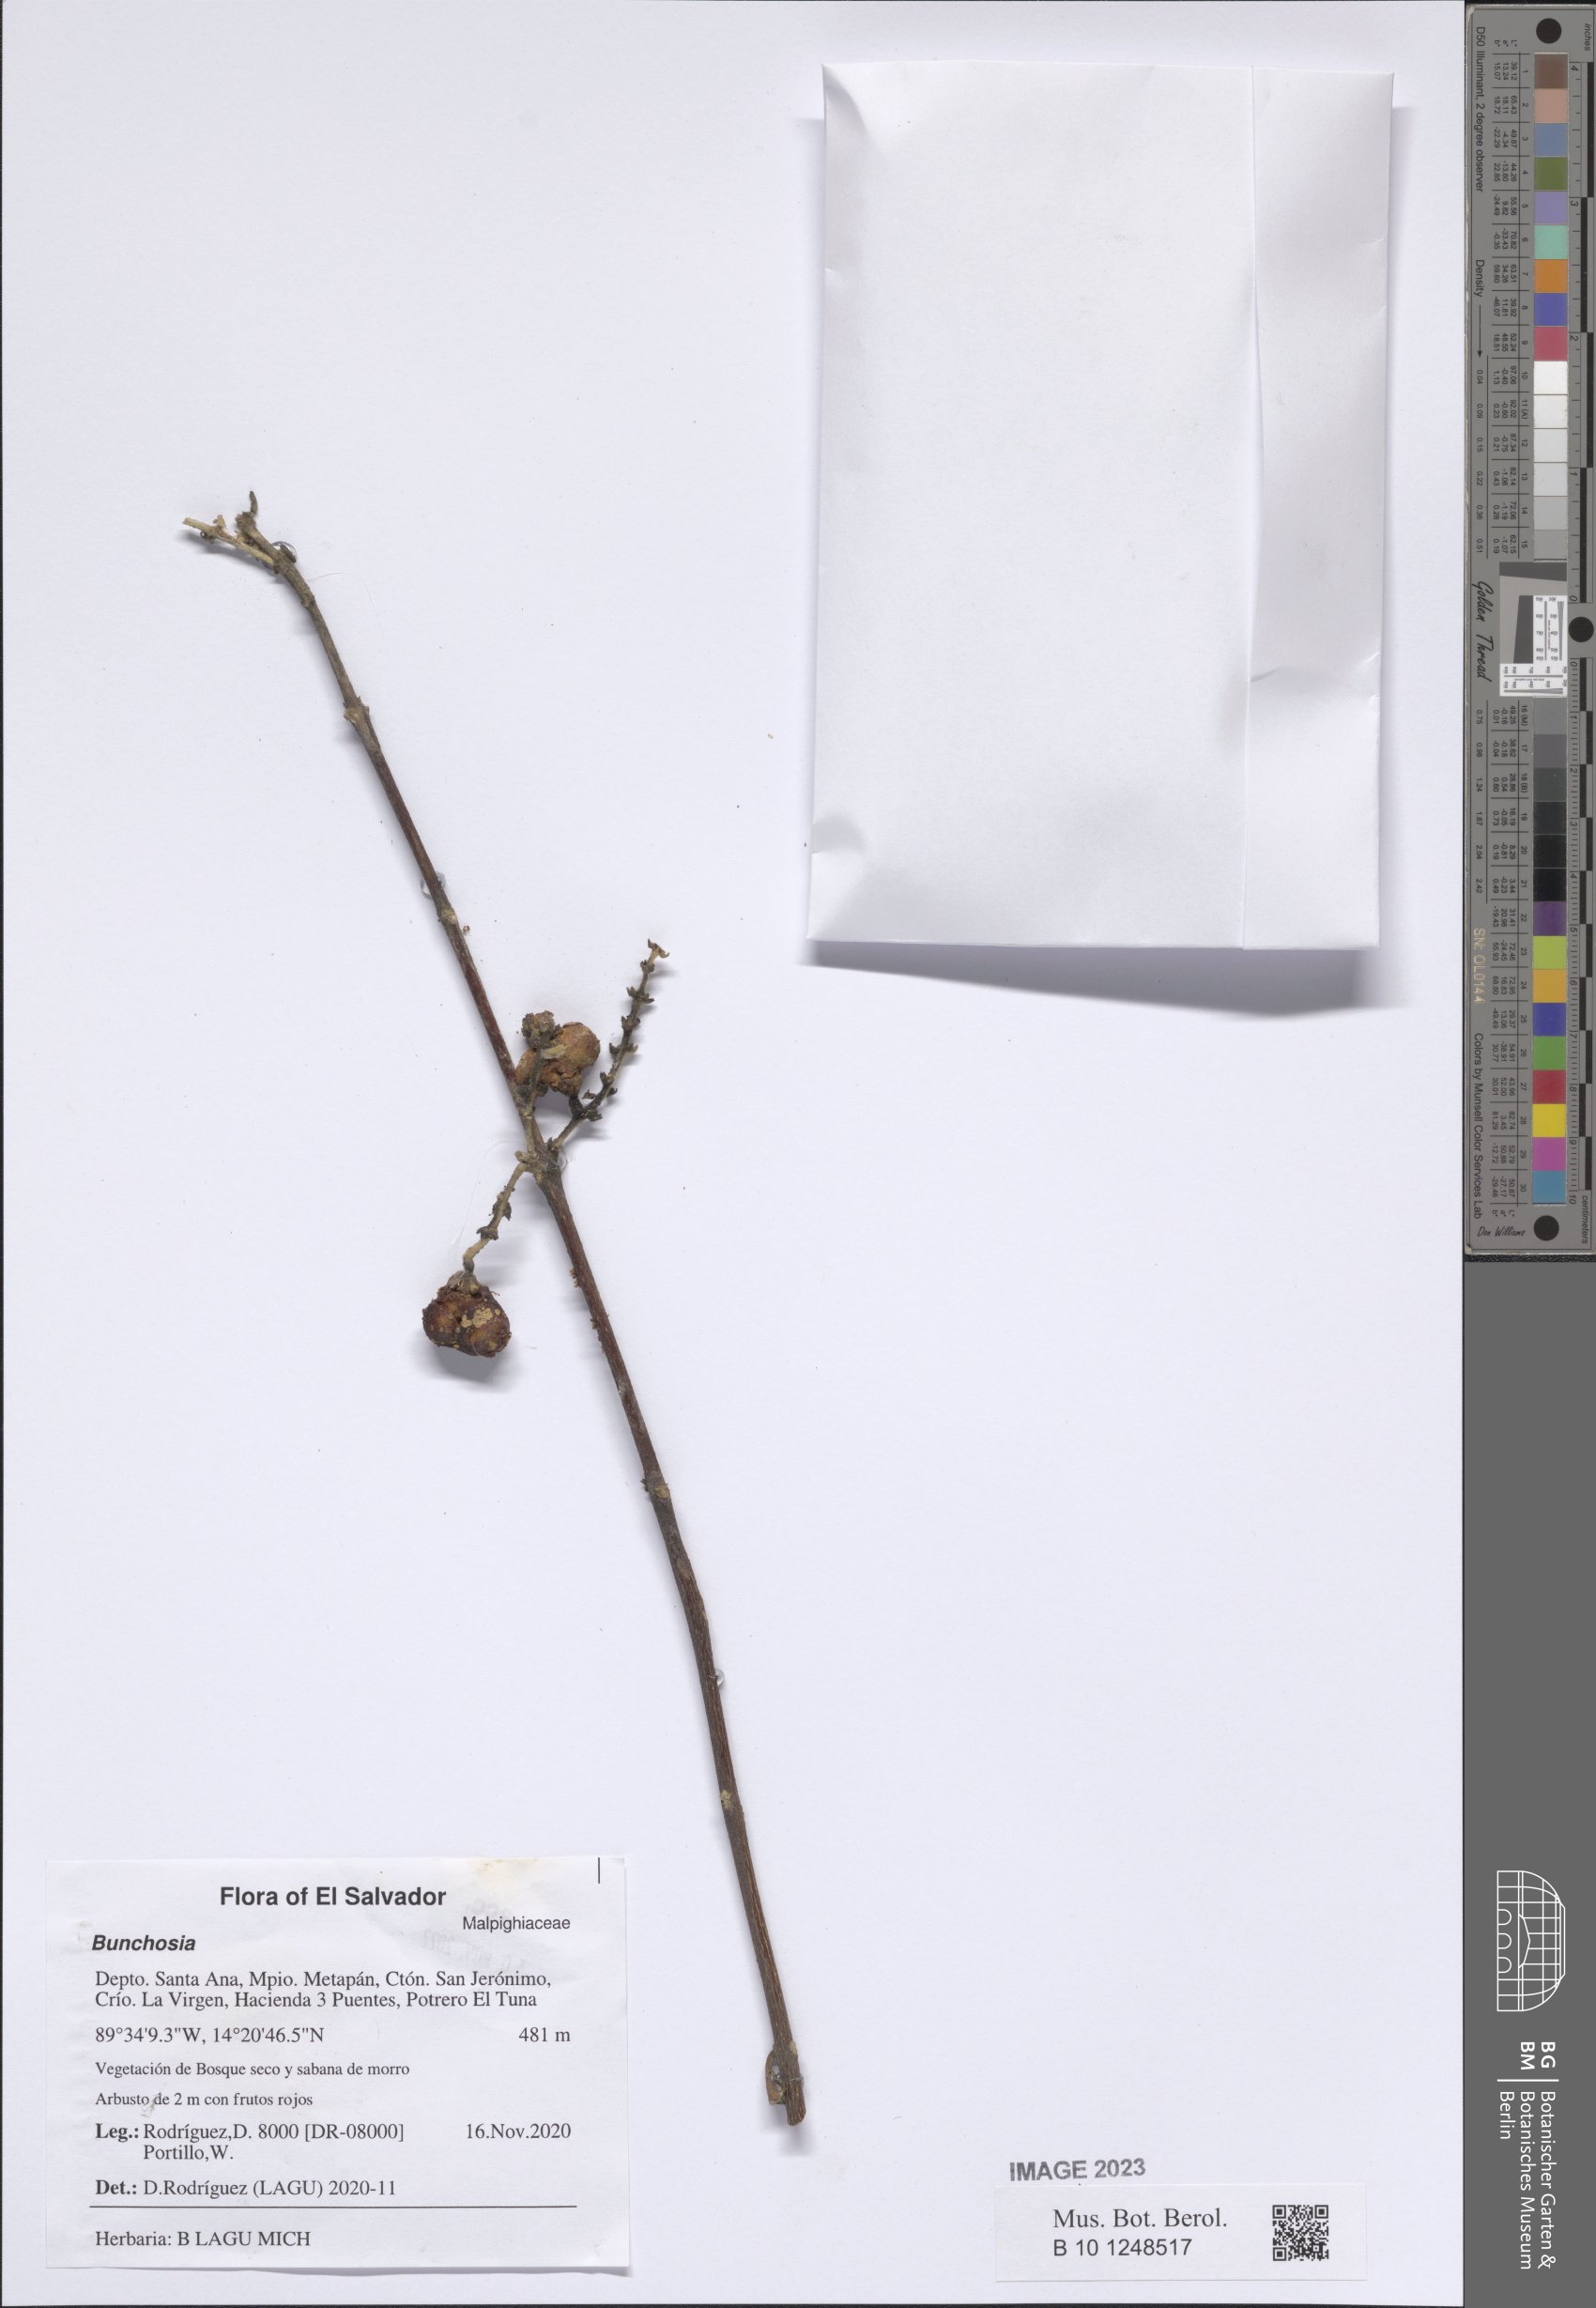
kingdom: Plantae
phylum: Tracheophyta
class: Magnoliopsida
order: Malpighiales
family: Malpighiaceae
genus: Bunchosia
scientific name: Bunchosia
